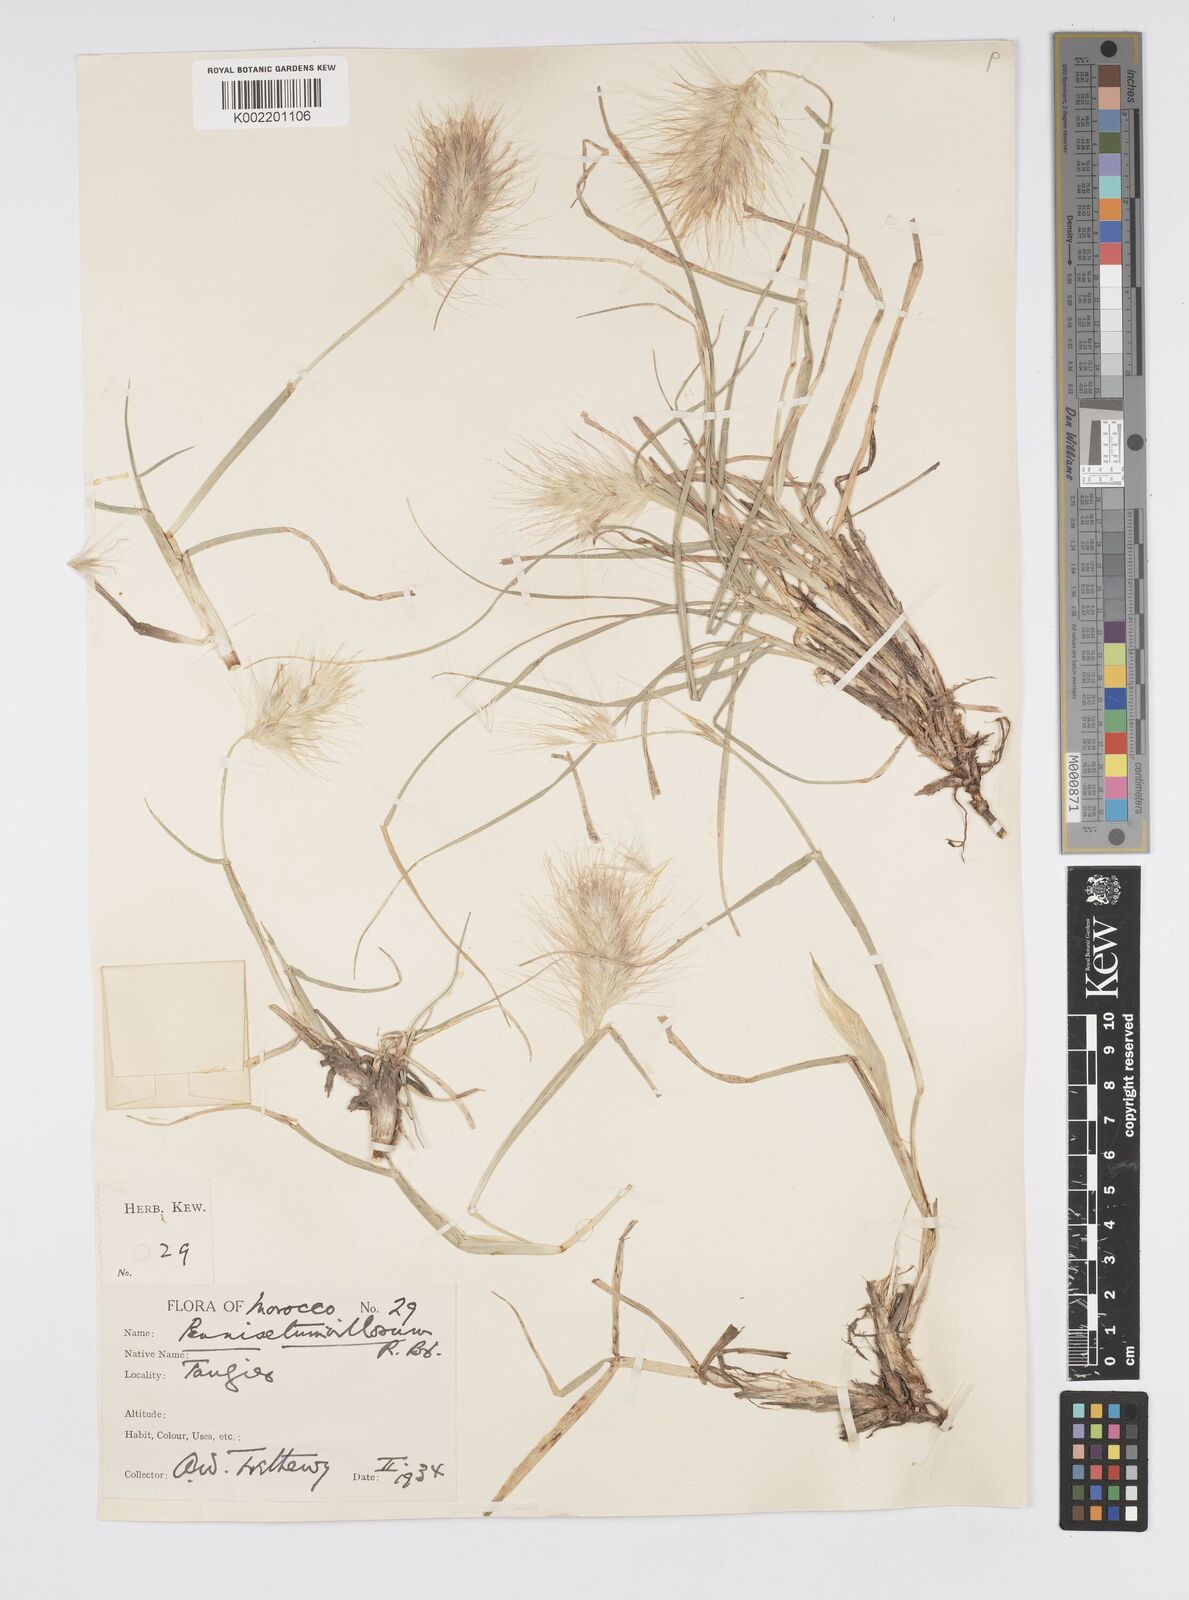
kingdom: Plantae
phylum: Tracheophyta
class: Liliopsida
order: Poales
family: Poaceae
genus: Cenchrus
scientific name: Cenchrus longisetus
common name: Feathertop
